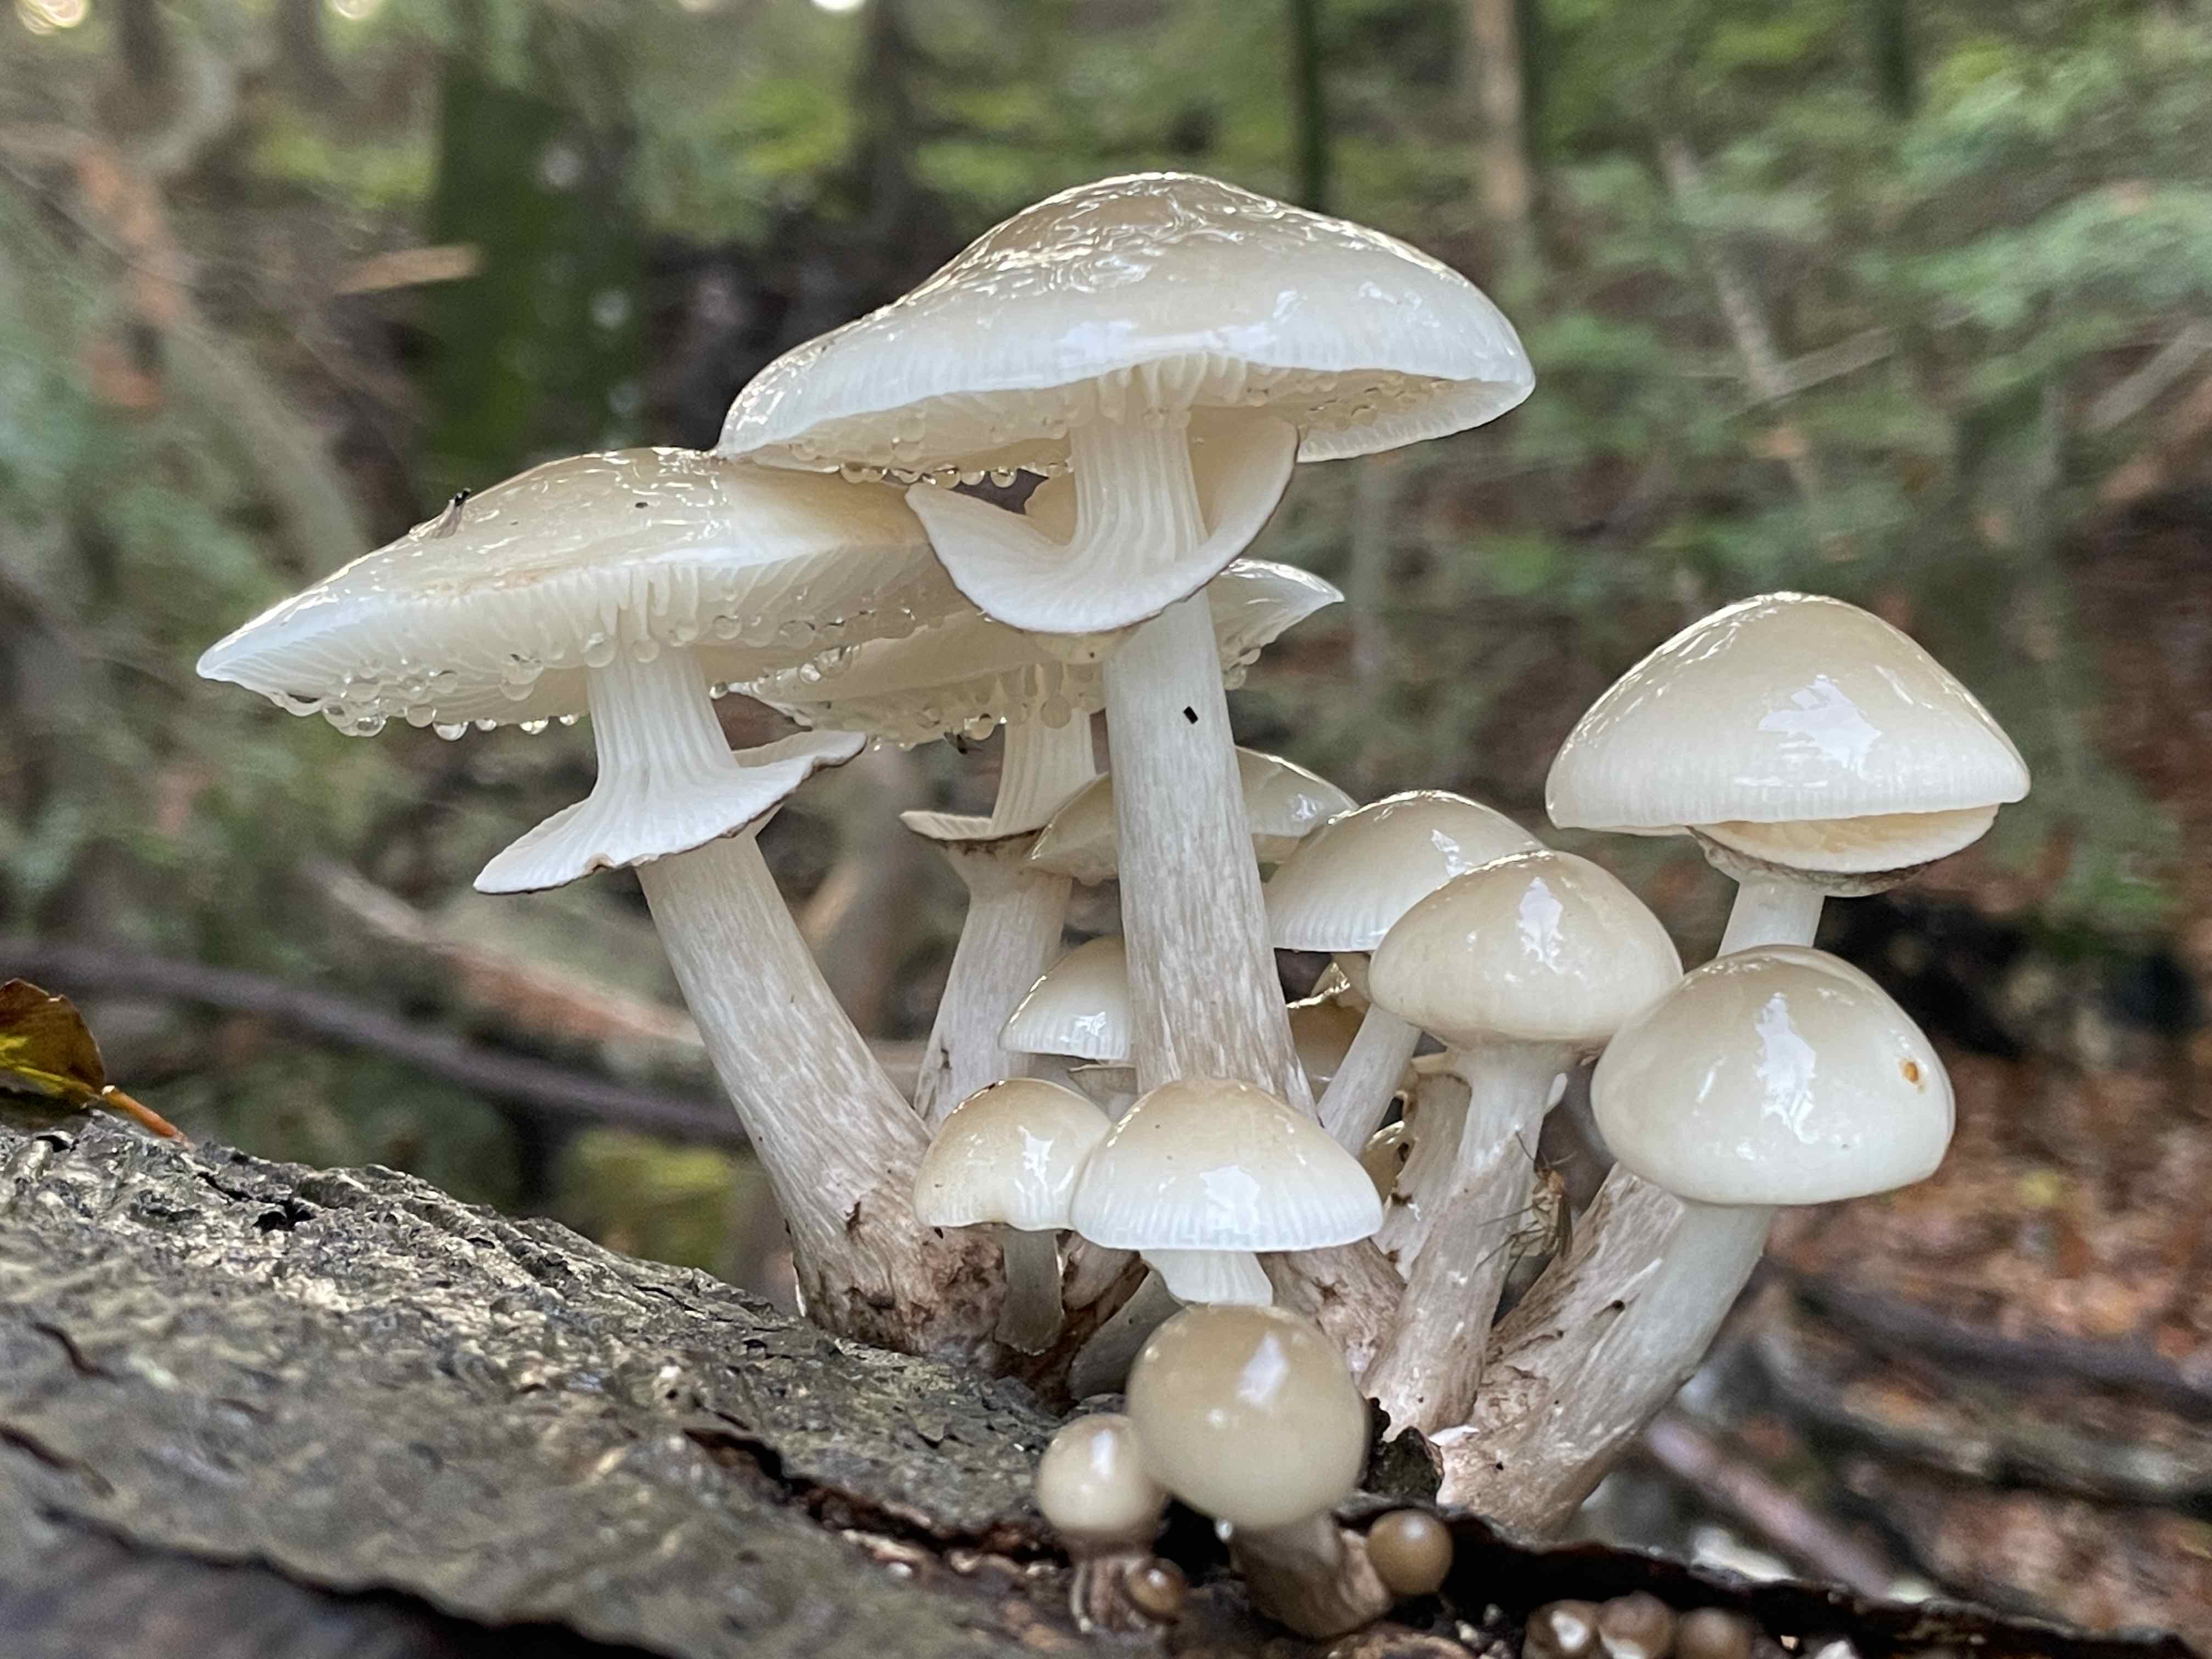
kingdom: Fungi
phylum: Basidiomycota
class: Agaricomycetes
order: Agaricales
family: Physalacriaceae
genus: Mucidula
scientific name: Mucidula mucida
